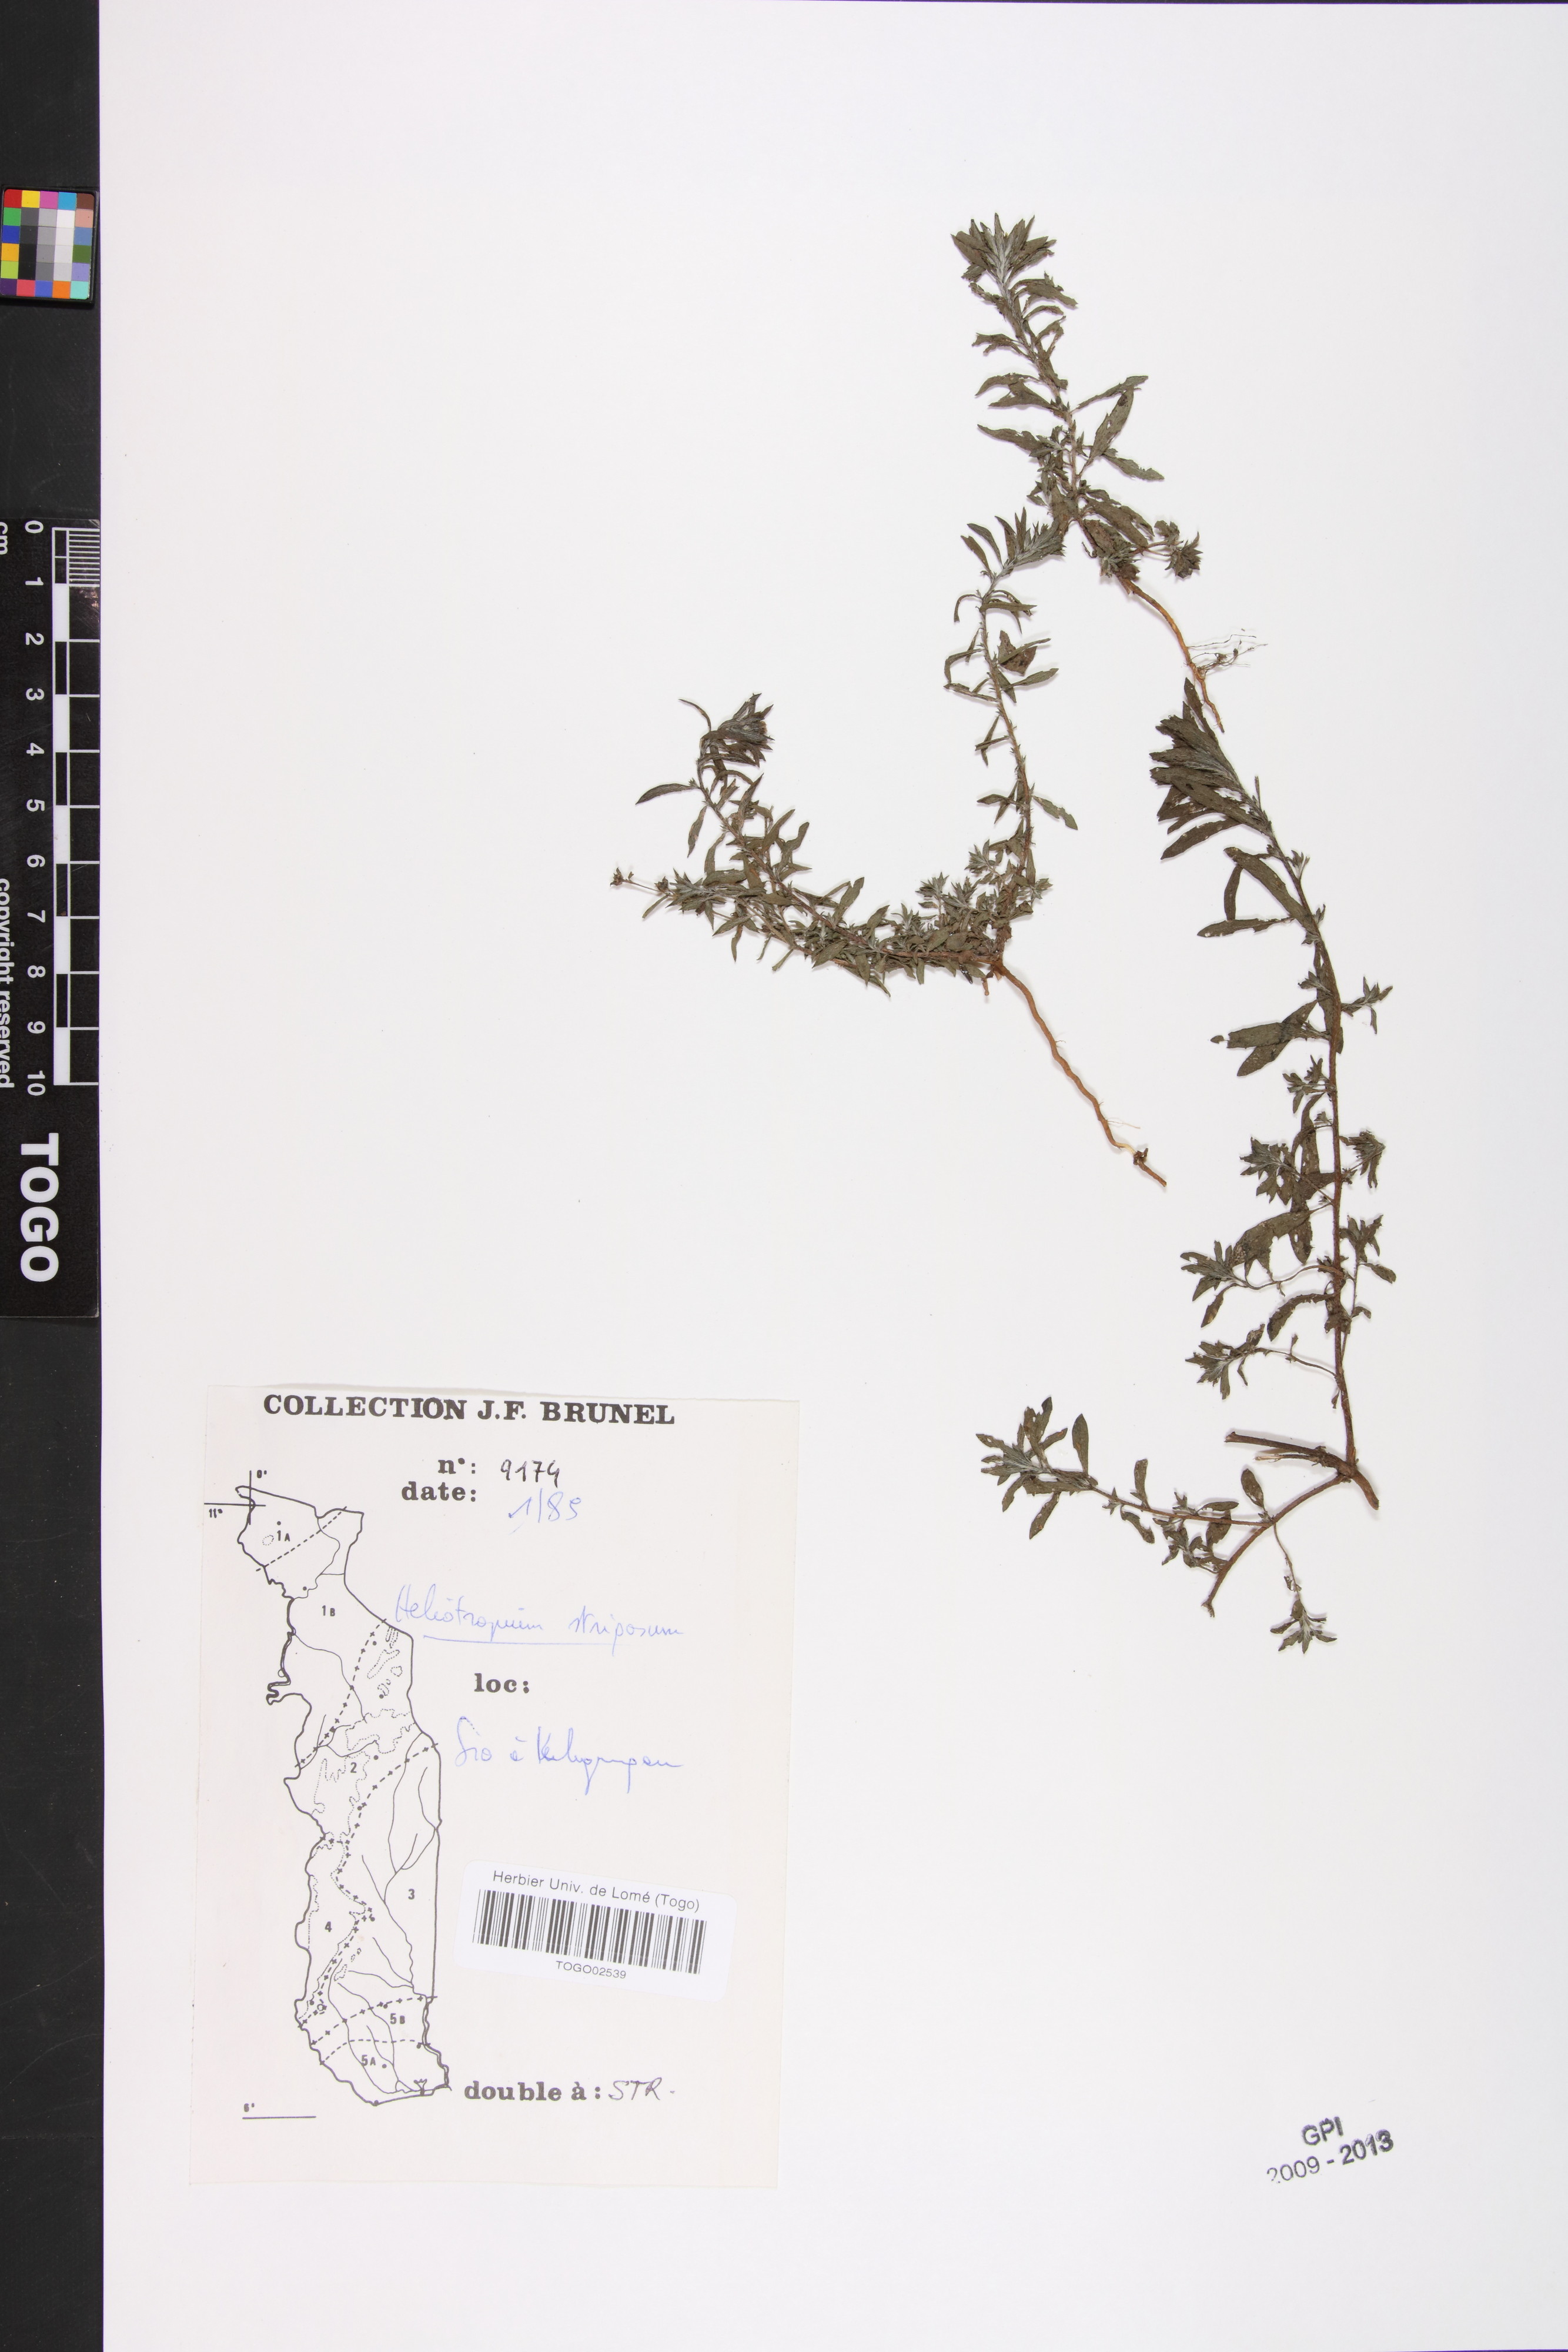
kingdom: Plantae
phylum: Tracheophyta
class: Magnoliopsida
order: Boraginales
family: Heliotropiaceae
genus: Euploca
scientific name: Euploca strigosa
